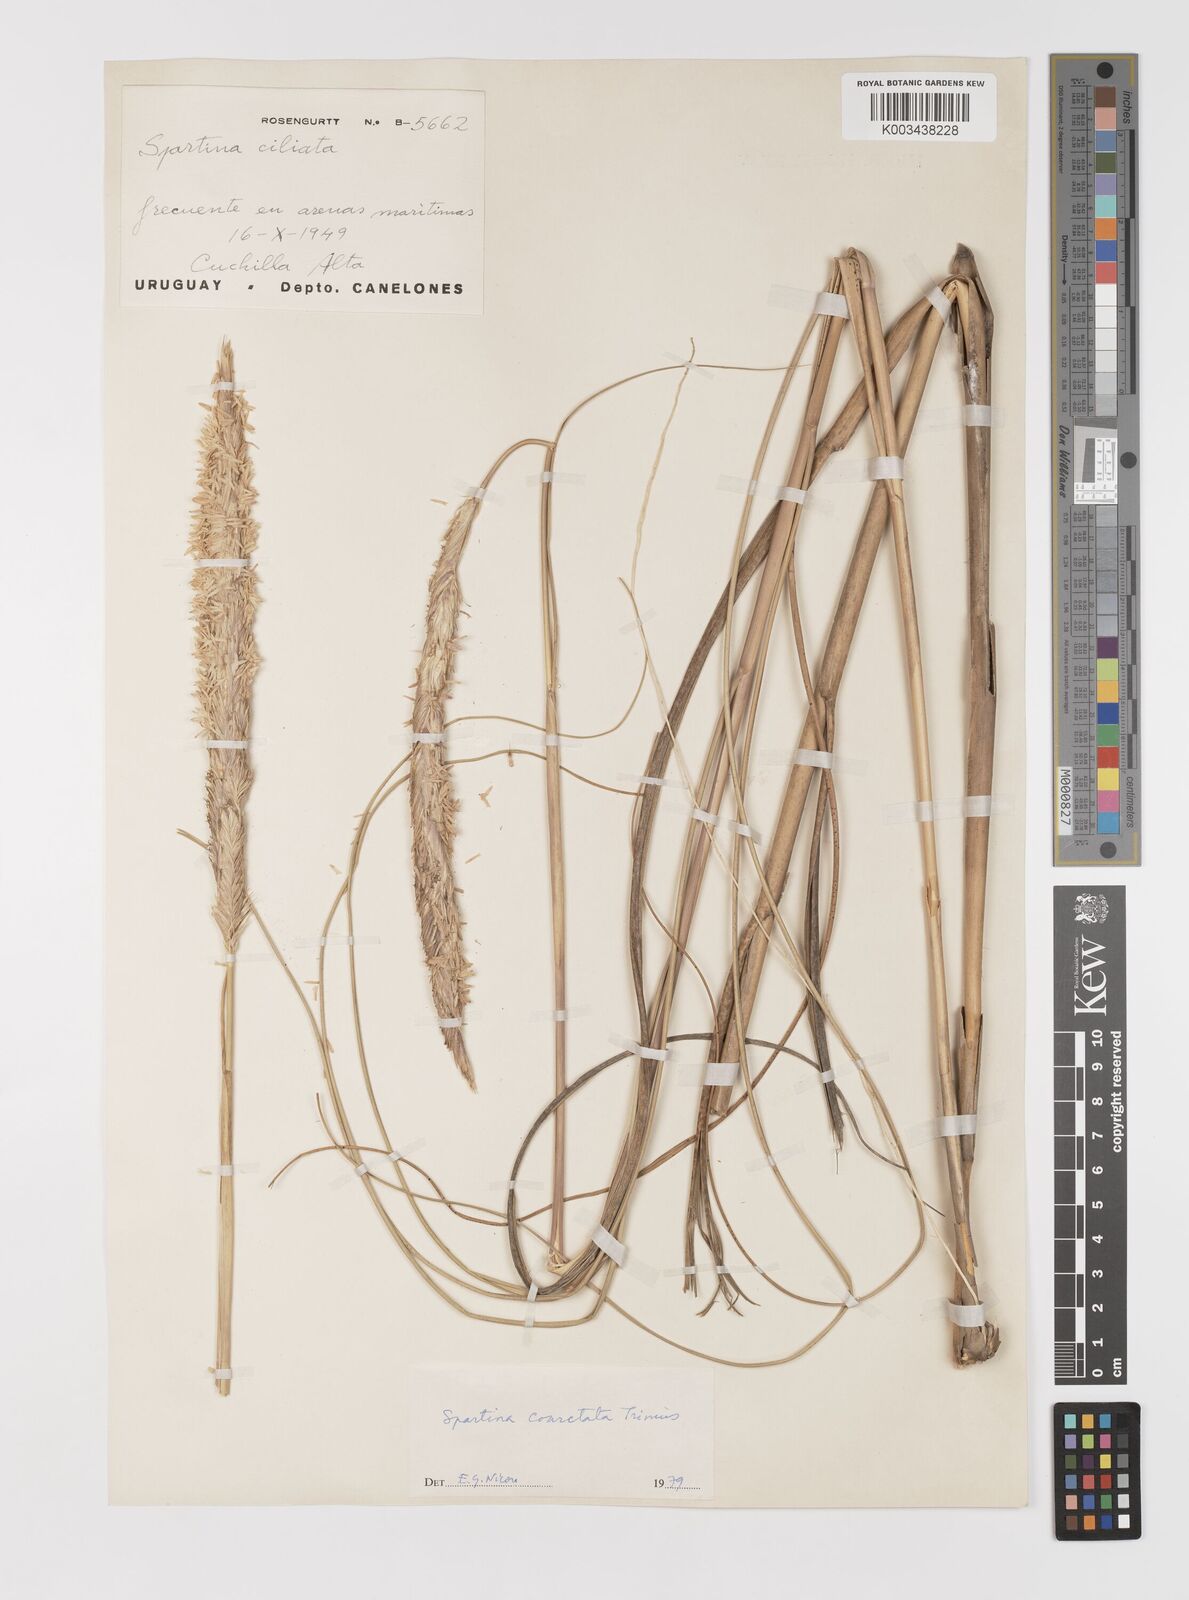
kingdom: Plantae
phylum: Tracheophyta
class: Liliopsida
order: Poales
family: Poaceae
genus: Sporobolus
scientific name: Sporobolus coarctatus
